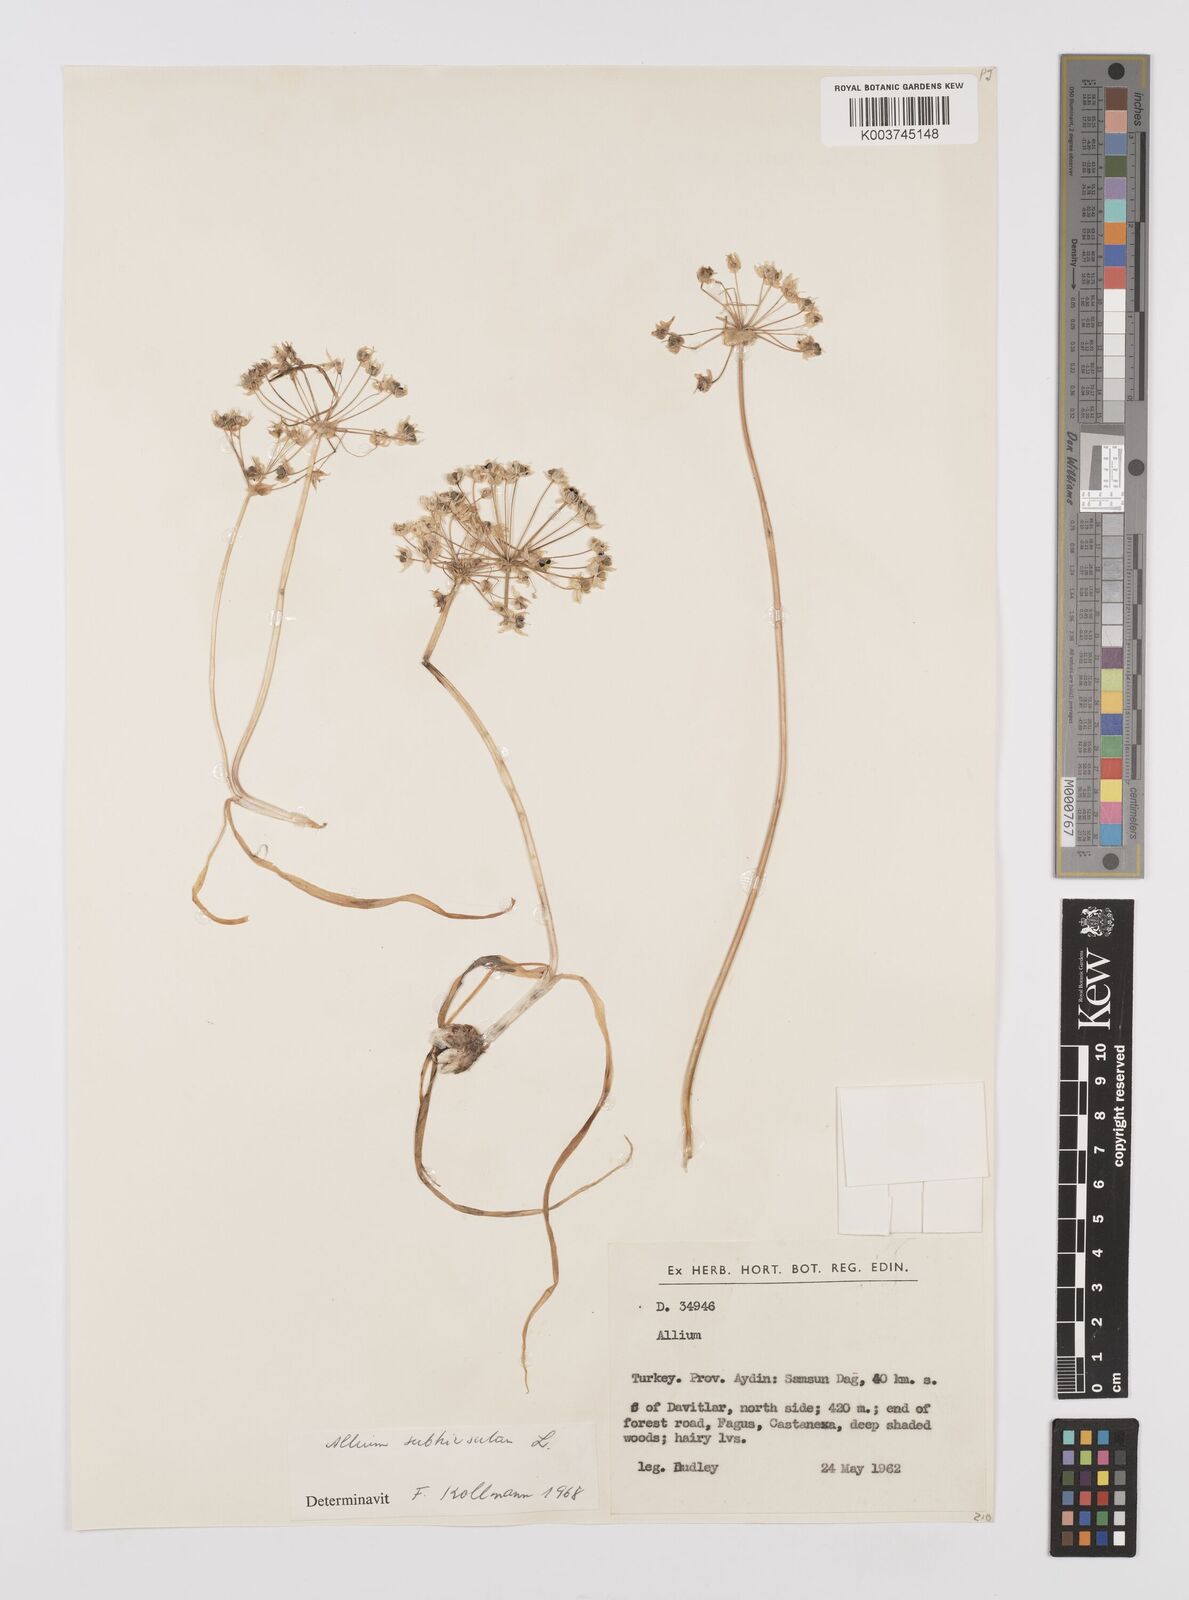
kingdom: Plantae
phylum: Tracheophyta
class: Liliopsida
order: Asparagales
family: Amaryllidaceae
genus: Allium
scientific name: Allium subhirsutum
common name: Hairy garlic
